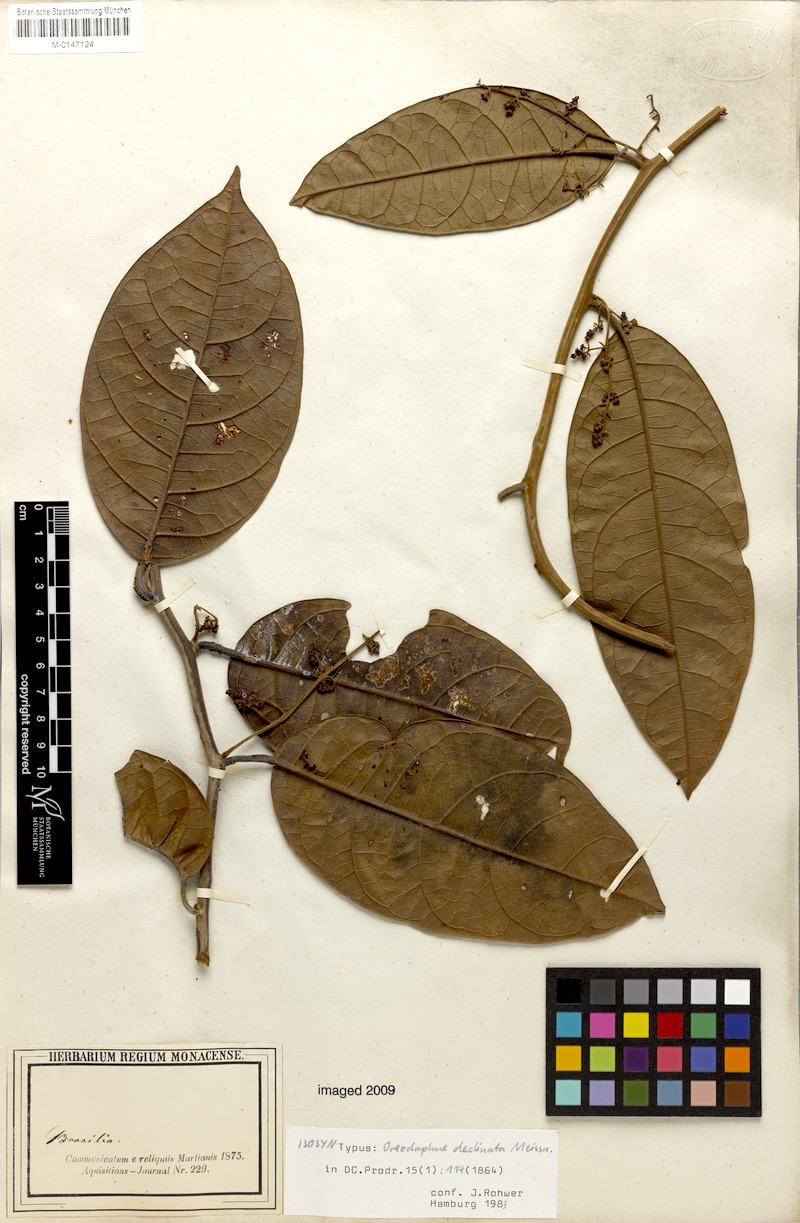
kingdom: Plantae
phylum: Tracheophyta
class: Magnoliopsida
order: Laurales
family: Lauraceae
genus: Ocotea
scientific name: Ocotea deflexa
